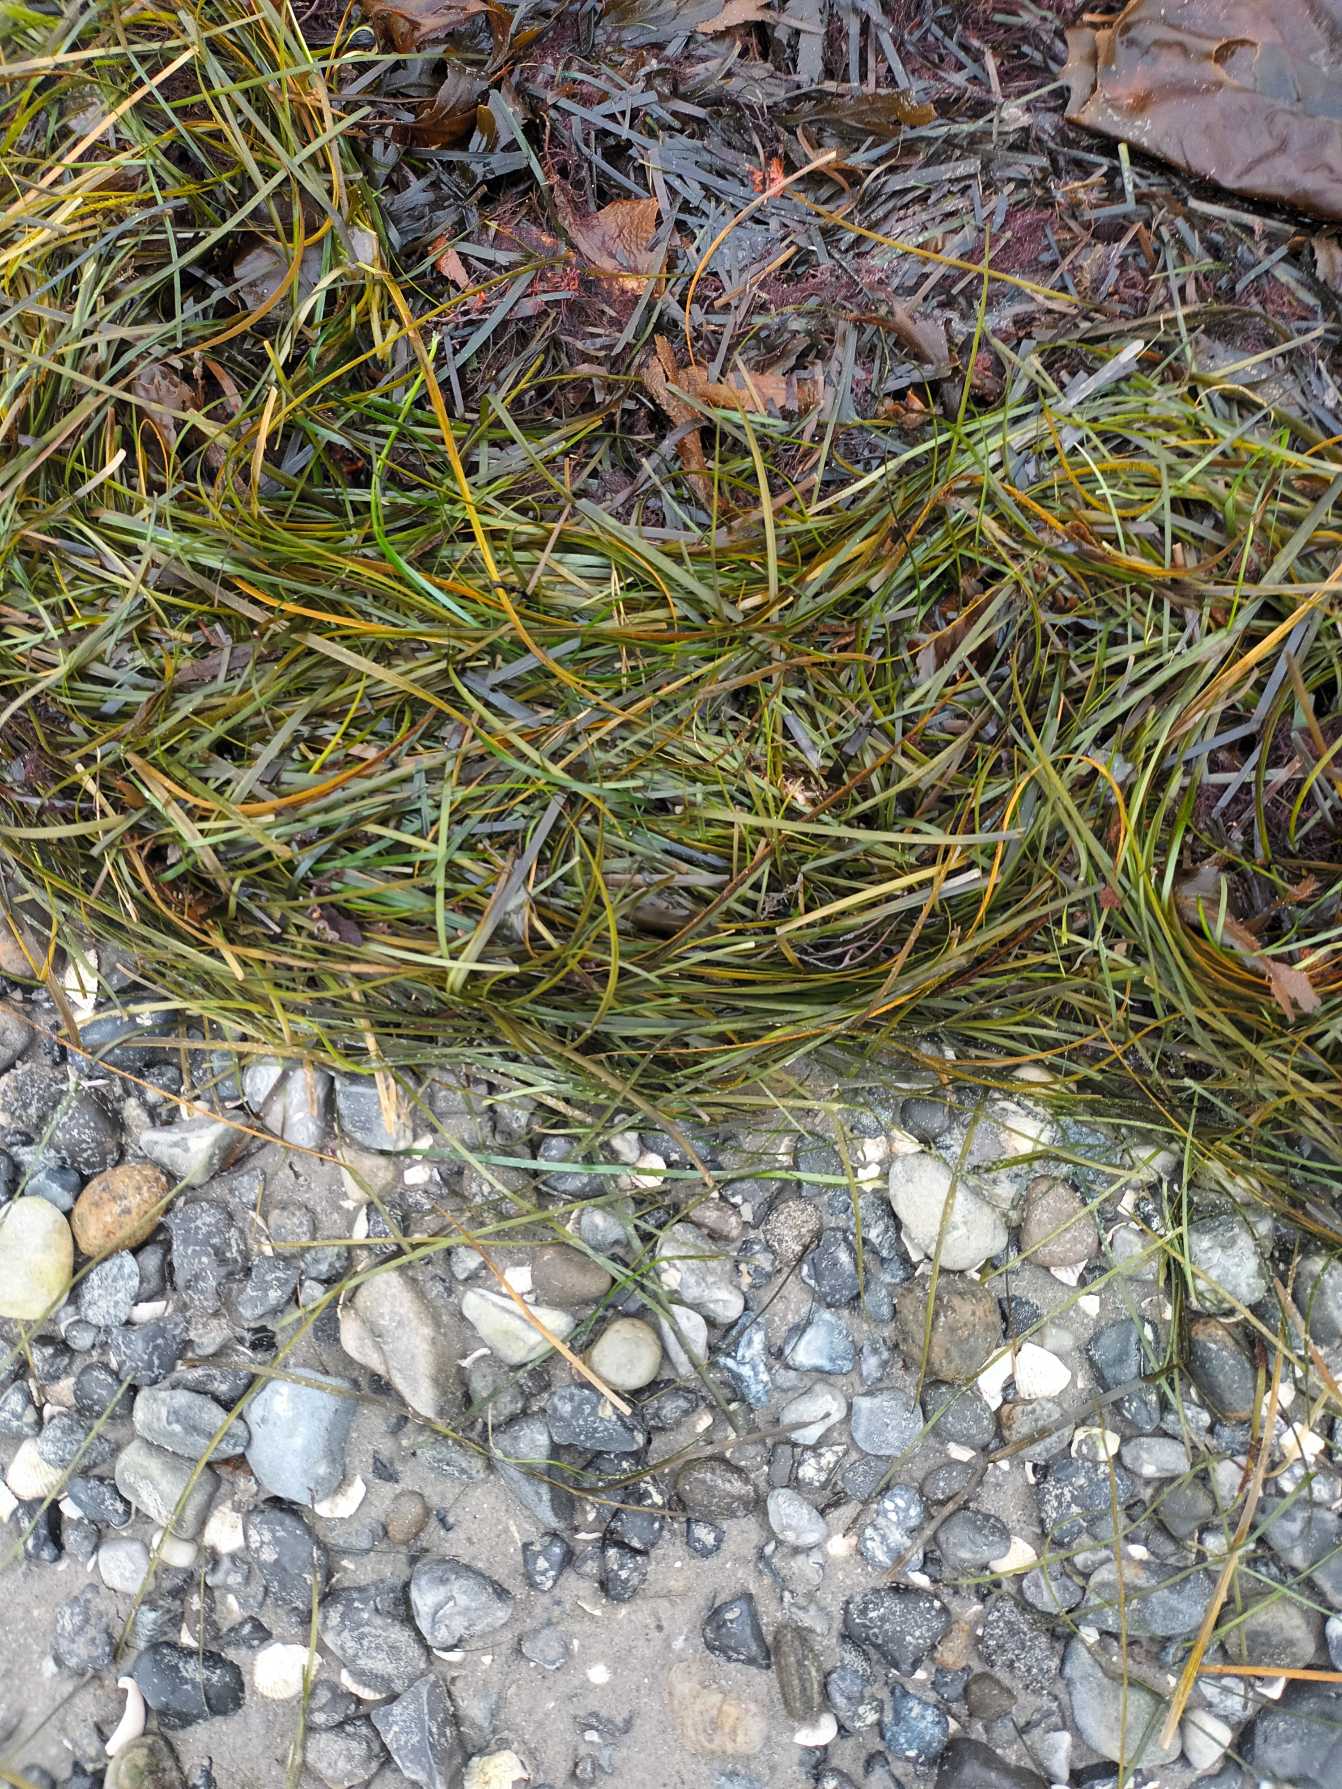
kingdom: Plantae
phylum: Tracheophyta
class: Liliopsida
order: Alismatales
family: Zosteraceae
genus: Zostera
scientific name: Zostera marina
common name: Almindelig bændeltang
